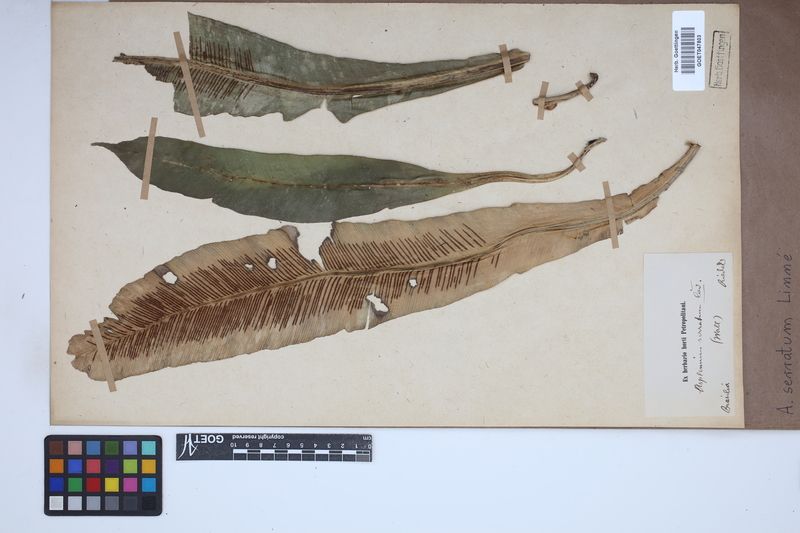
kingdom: Plantae
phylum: Tracheophyta
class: Polypodiopsida
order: Polypodiales
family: Aspleniaceae
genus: Asplenium
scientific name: Asplenium serratum
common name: Wild birdnest fern
